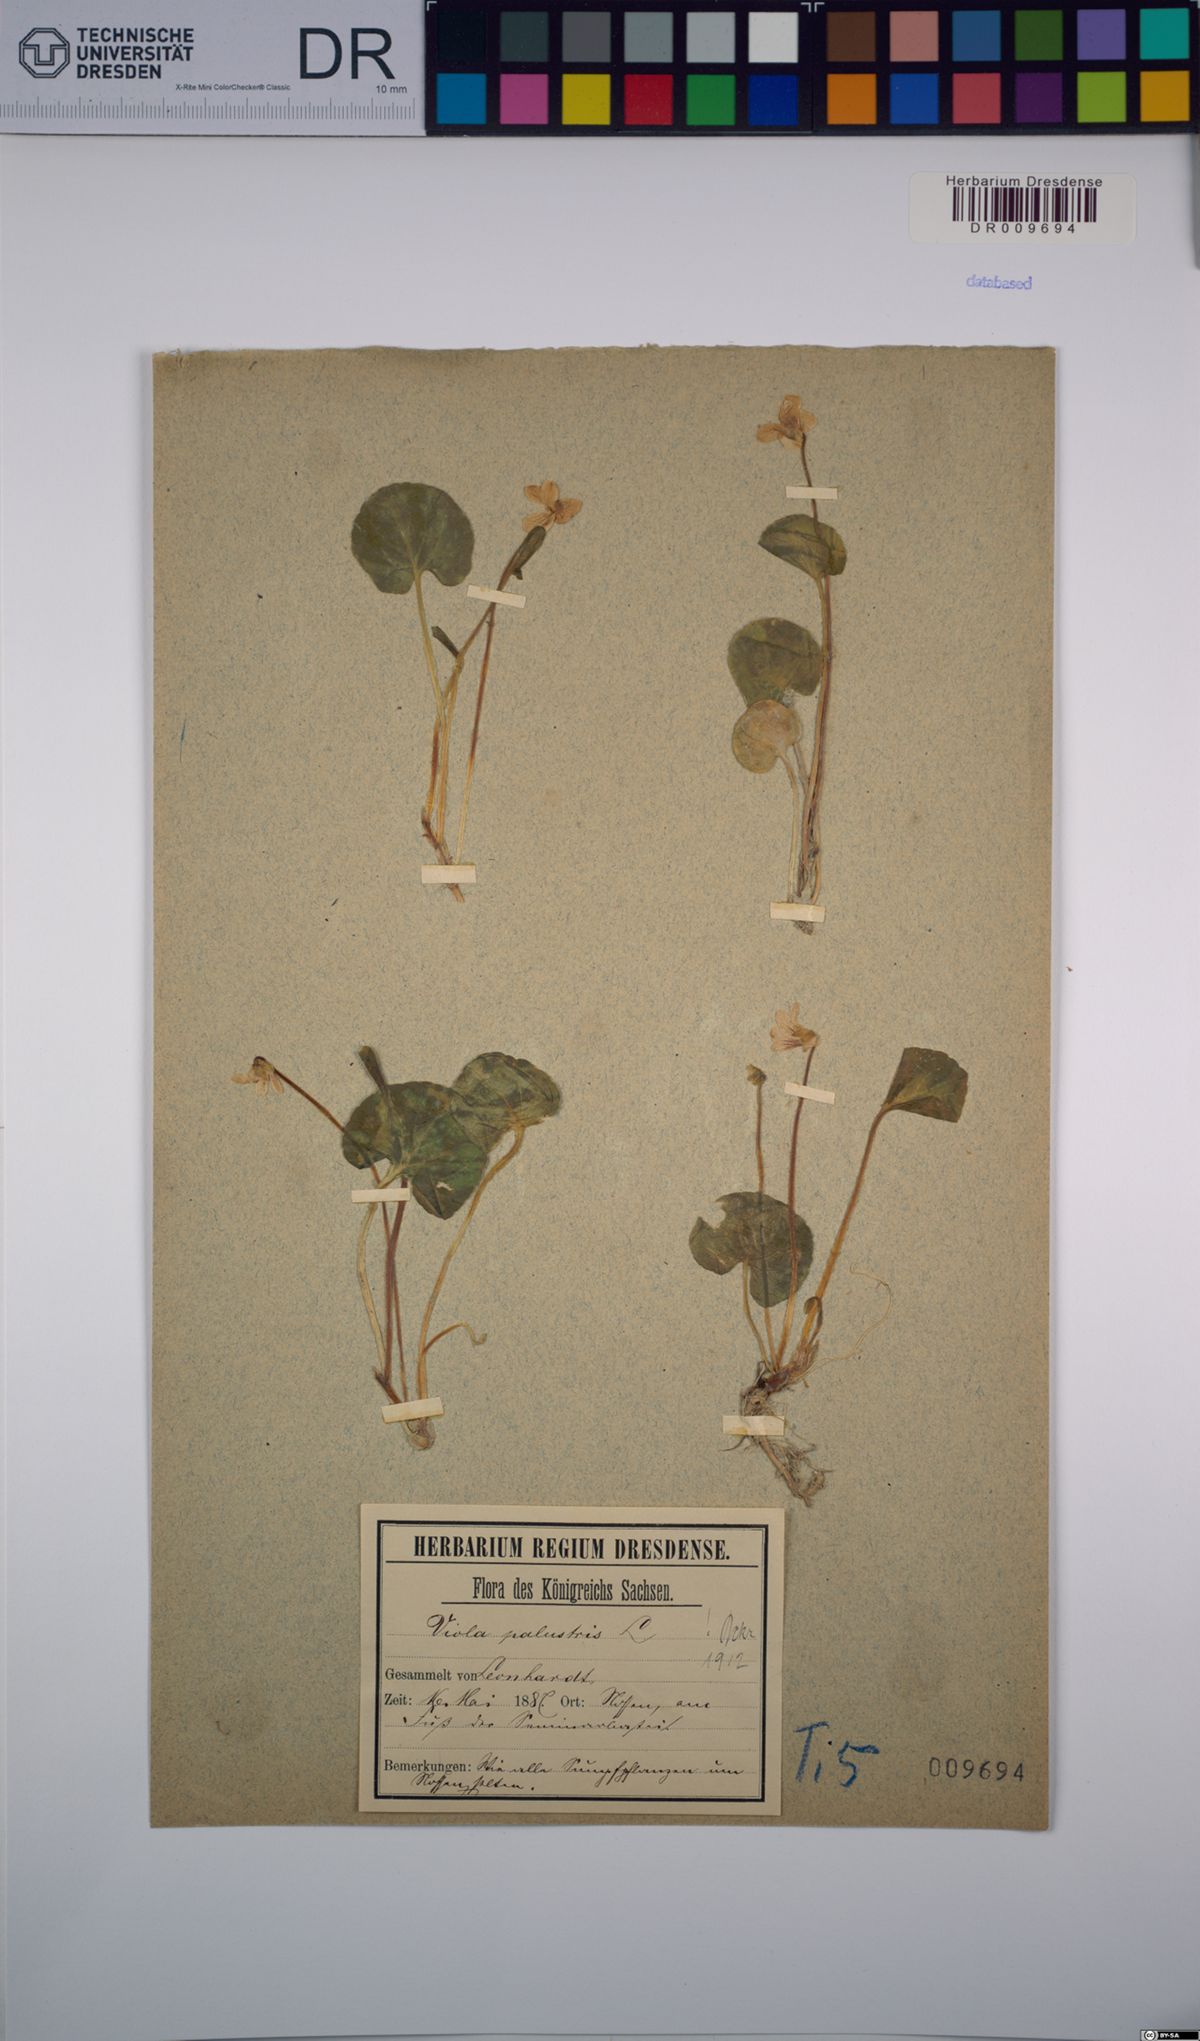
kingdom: Plantae
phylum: Tracheophyta
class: Magnoliopsida
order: Malpighiales
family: Violaceae
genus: Viola
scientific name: Viola palustris
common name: Marsh violet
